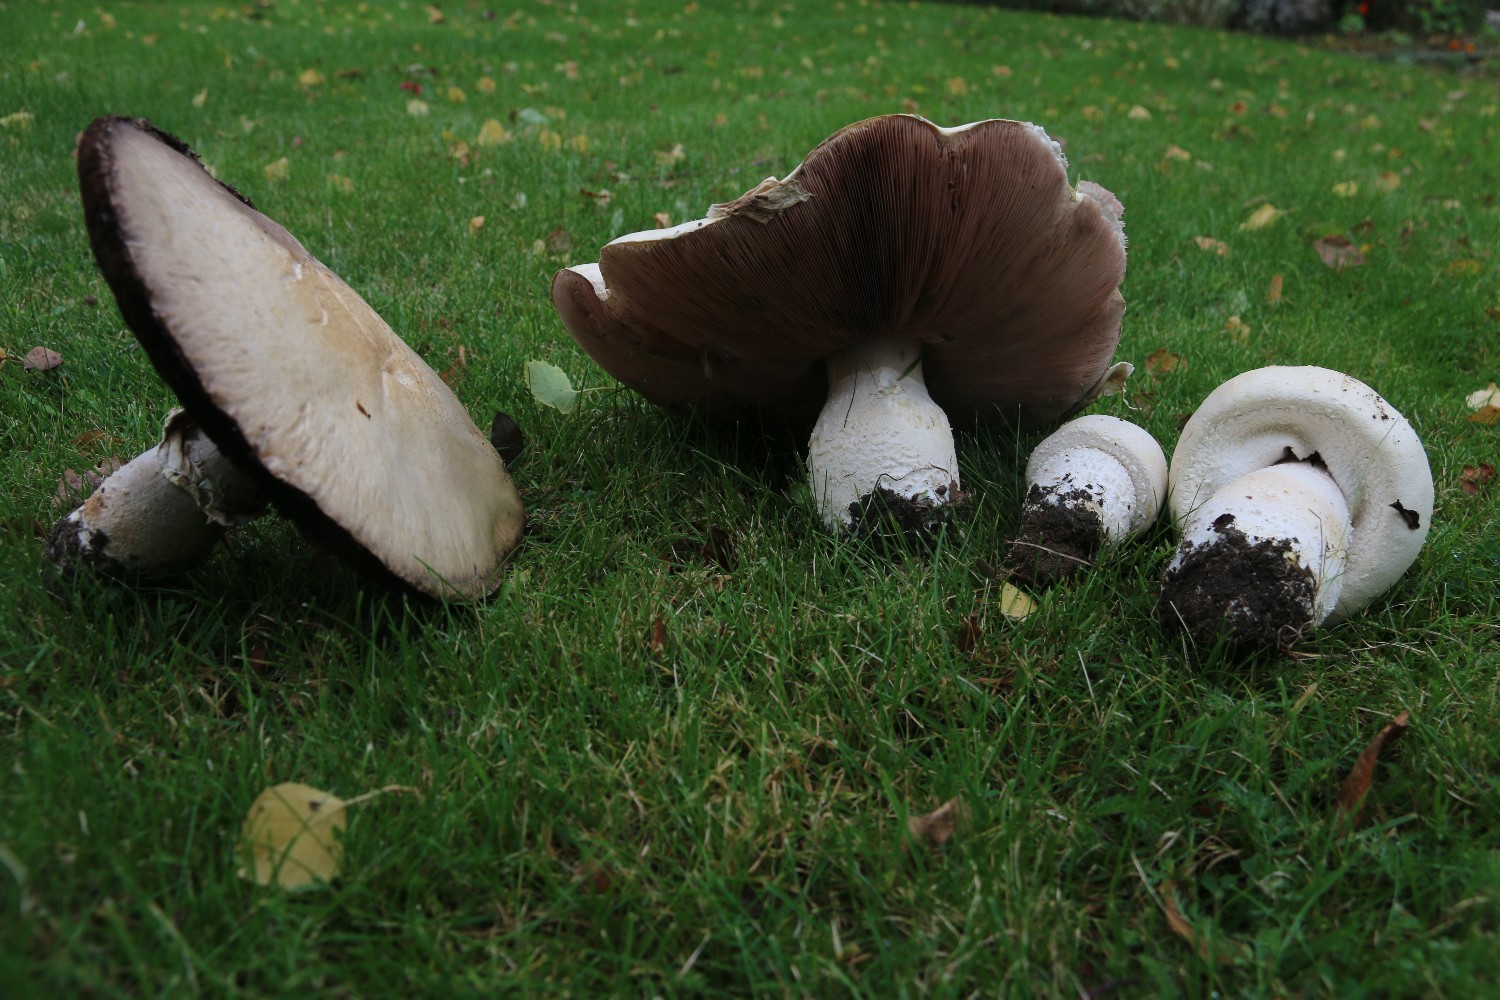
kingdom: Fungi
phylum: Basidiomycota
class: Agaricomycetes
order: Agaricales
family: Agaricaceae
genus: Agaricus
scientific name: Agaricus crocodilinus
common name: landsby-champignon
